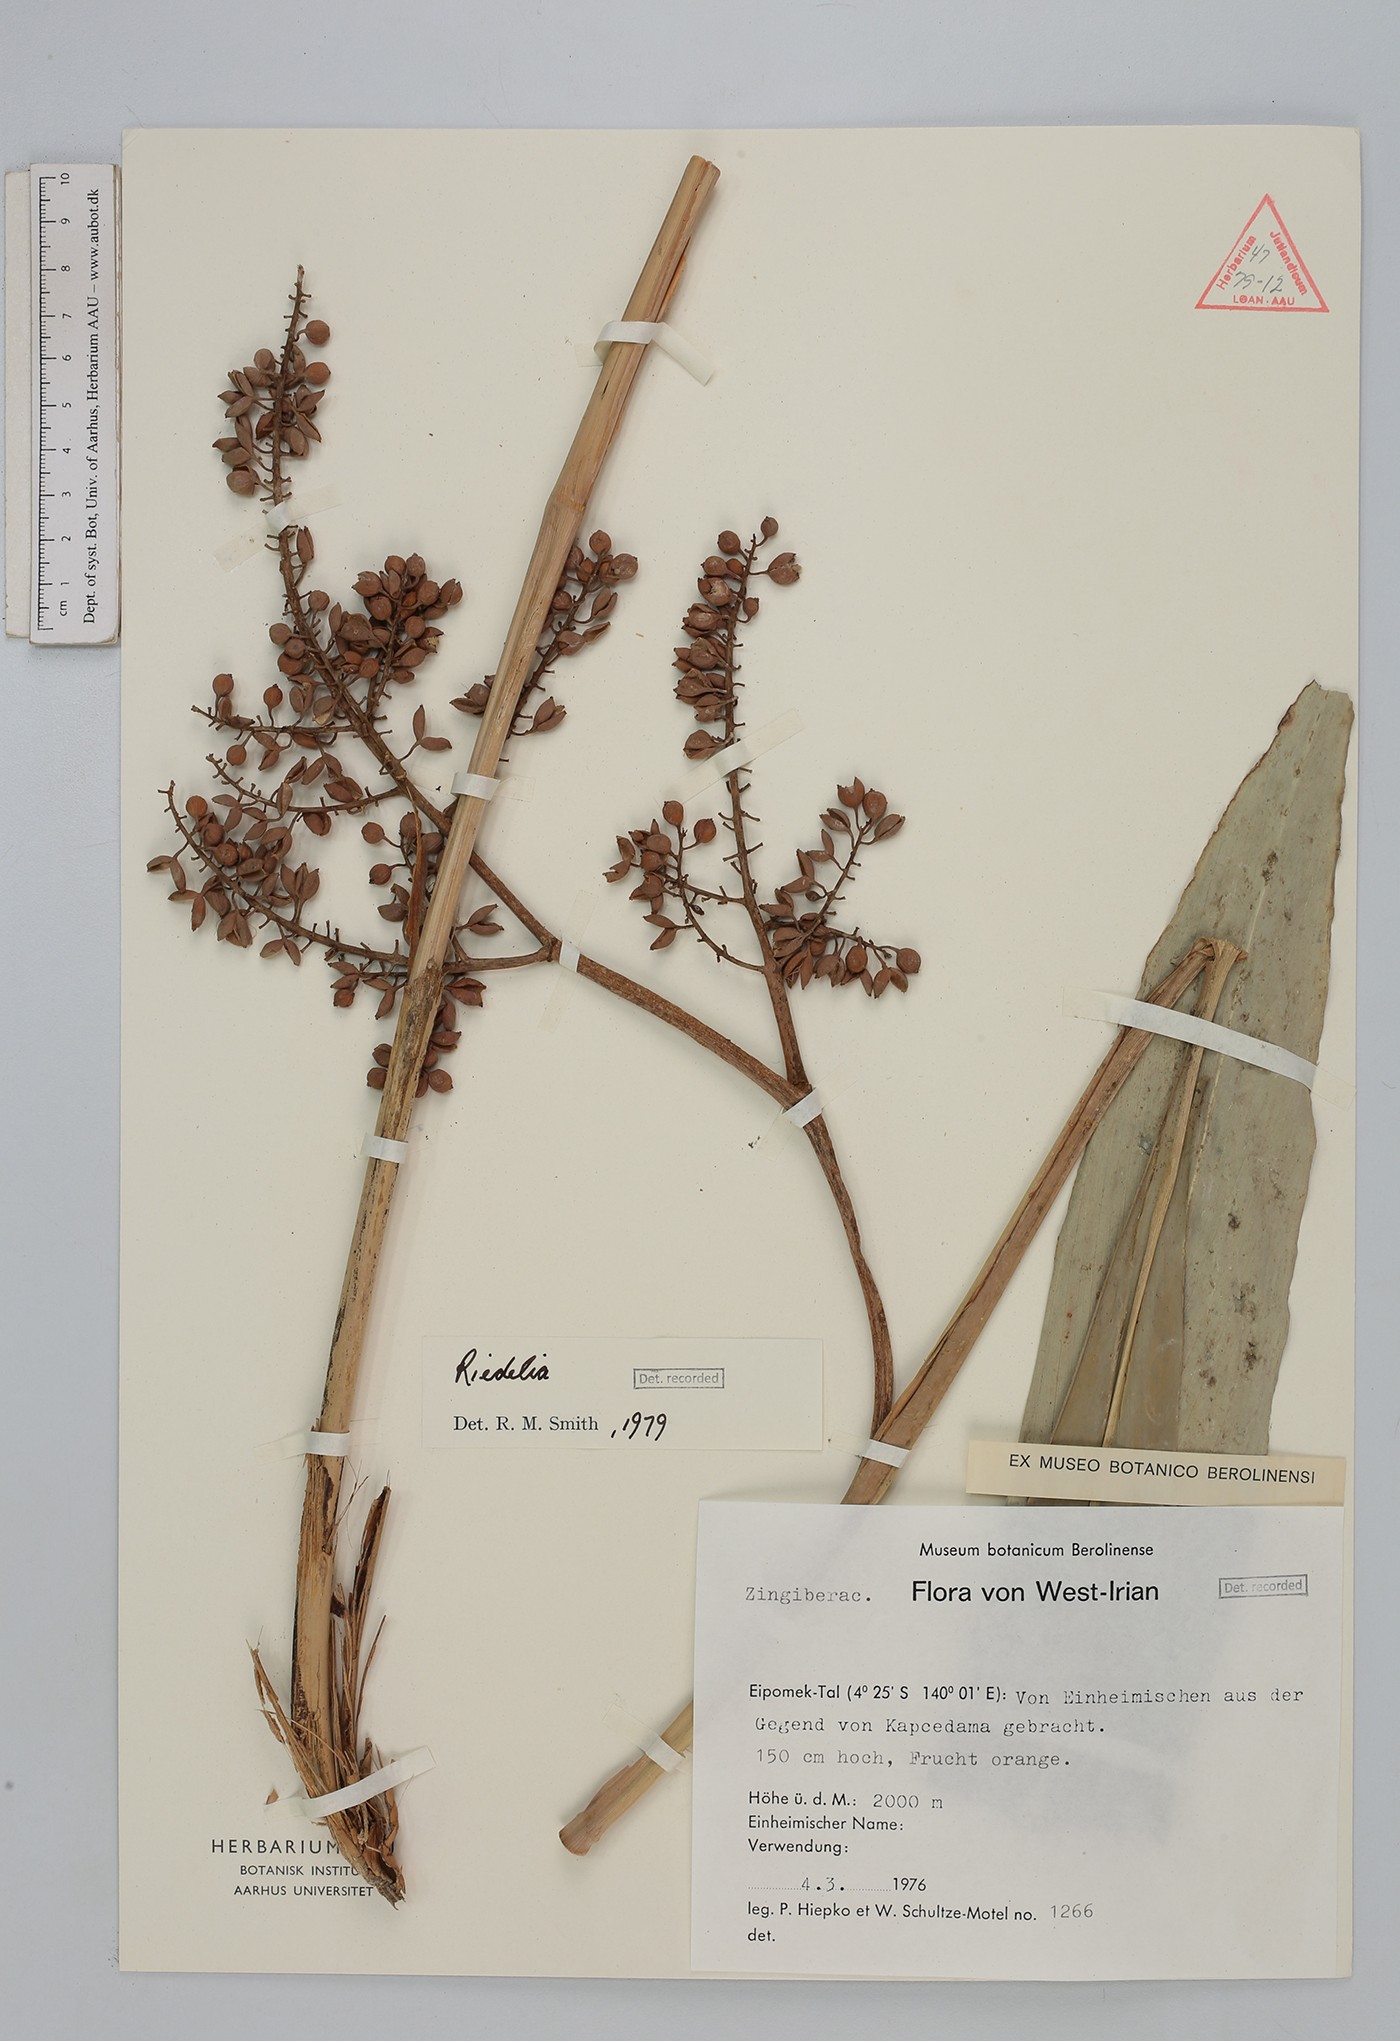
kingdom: Plantae
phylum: Tracheophyta
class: Liliopsida
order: Zingiberales
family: Zingiberaceae
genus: Riedelia
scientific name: Riedelia
